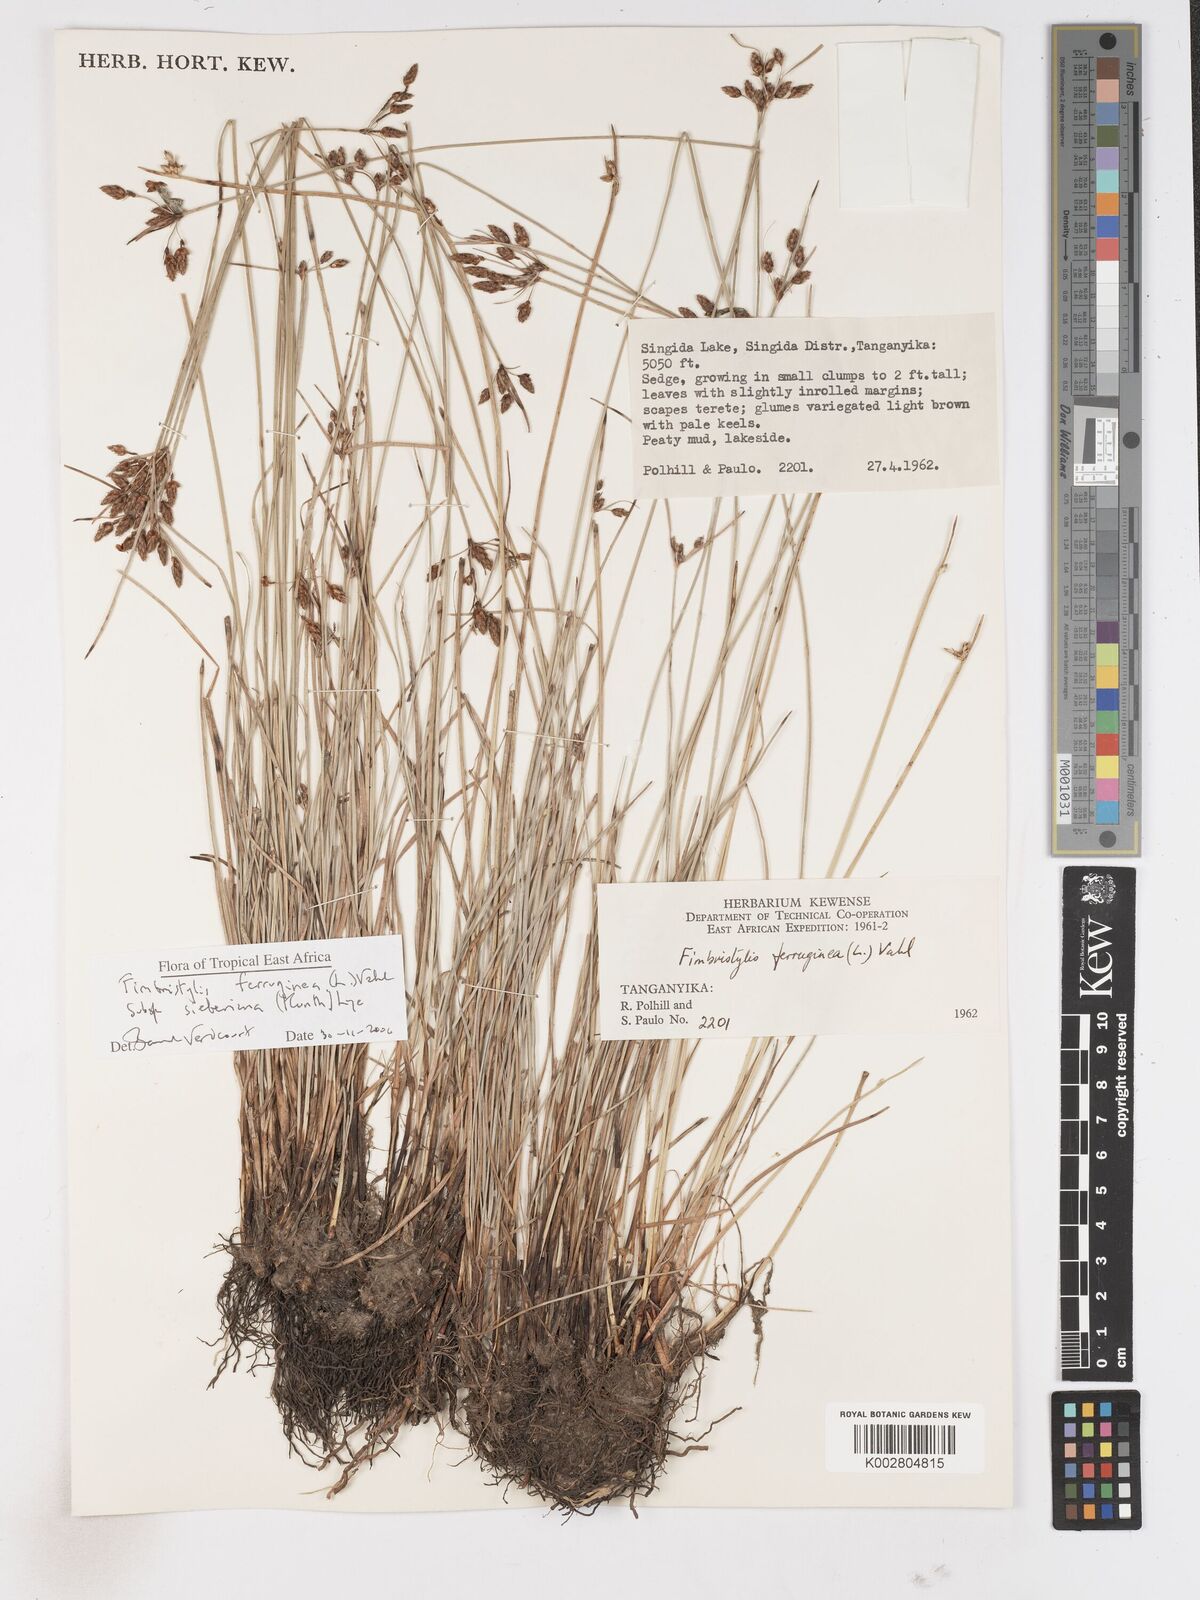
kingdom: Plantae
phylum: Tracheophyta
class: Liliopsida
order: Poales
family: Cyperaceae
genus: Fimbristylis
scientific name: Fimbristylis ferruginea
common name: West indian fimbry
